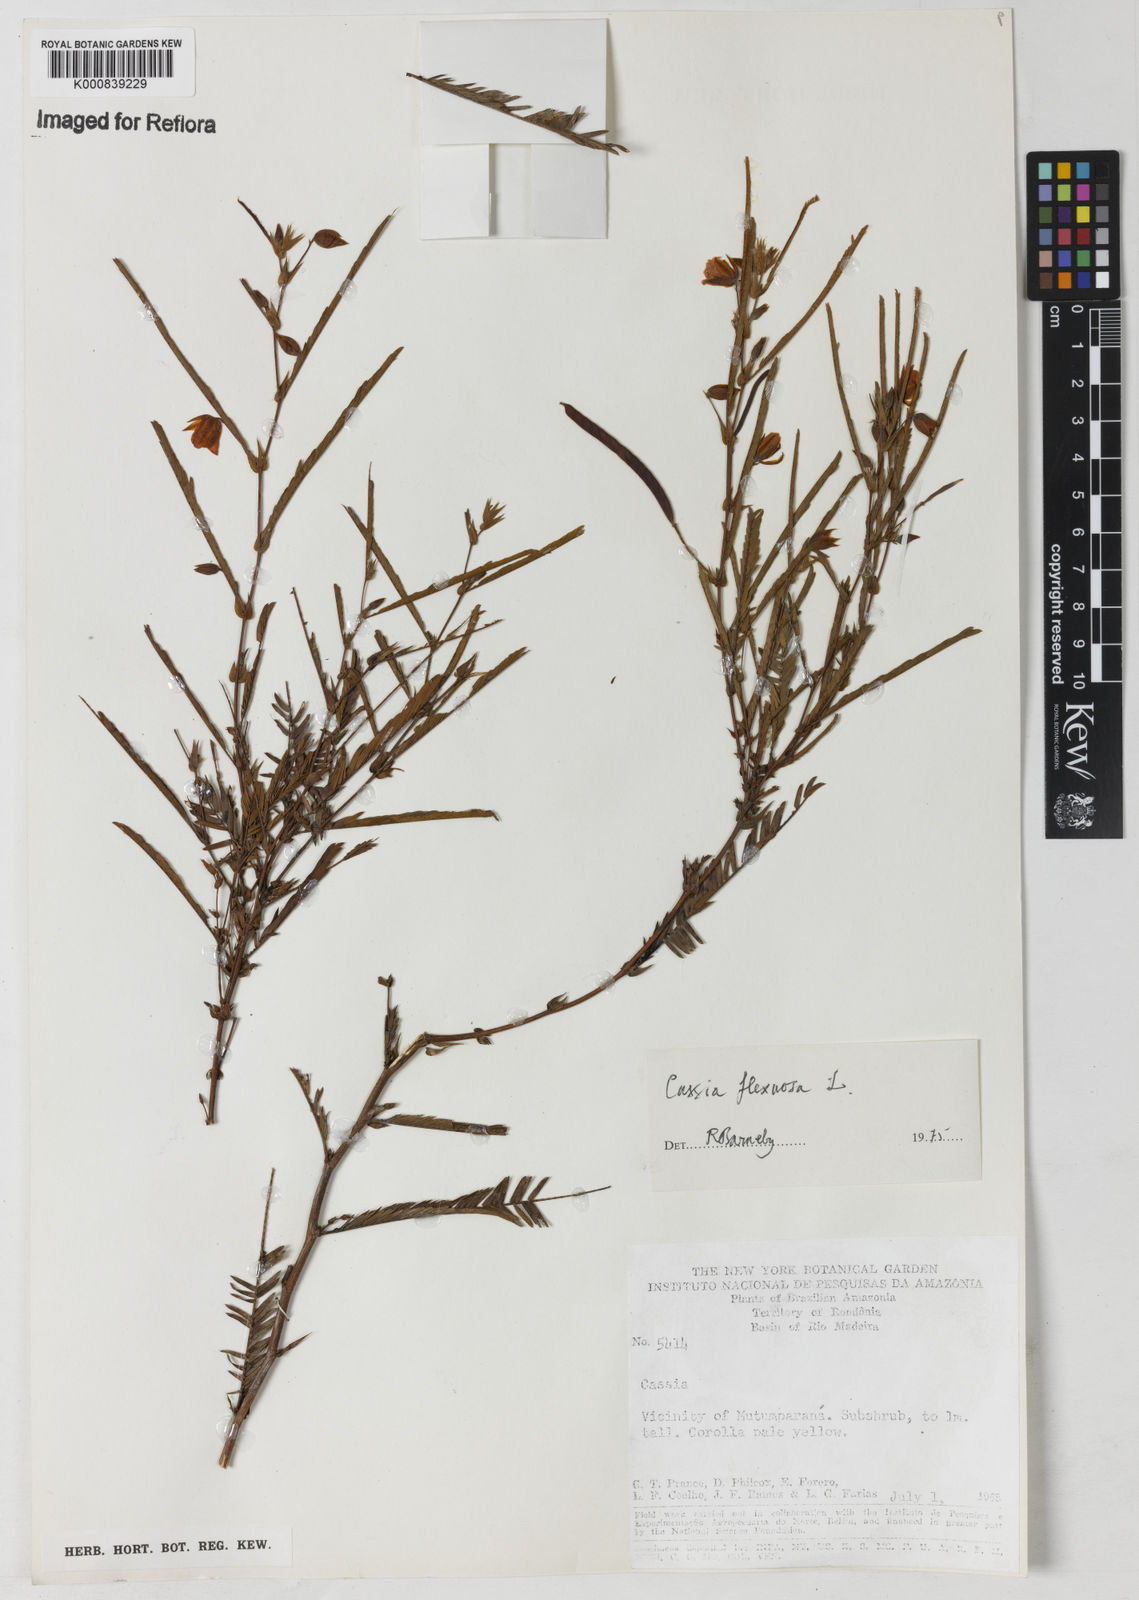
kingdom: Plantae
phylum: Tracheophyta
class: Magnoliopsida
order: Fabales
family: Fabaceae
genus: Chamaecrista
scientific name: Chamaecrista flexuosa
